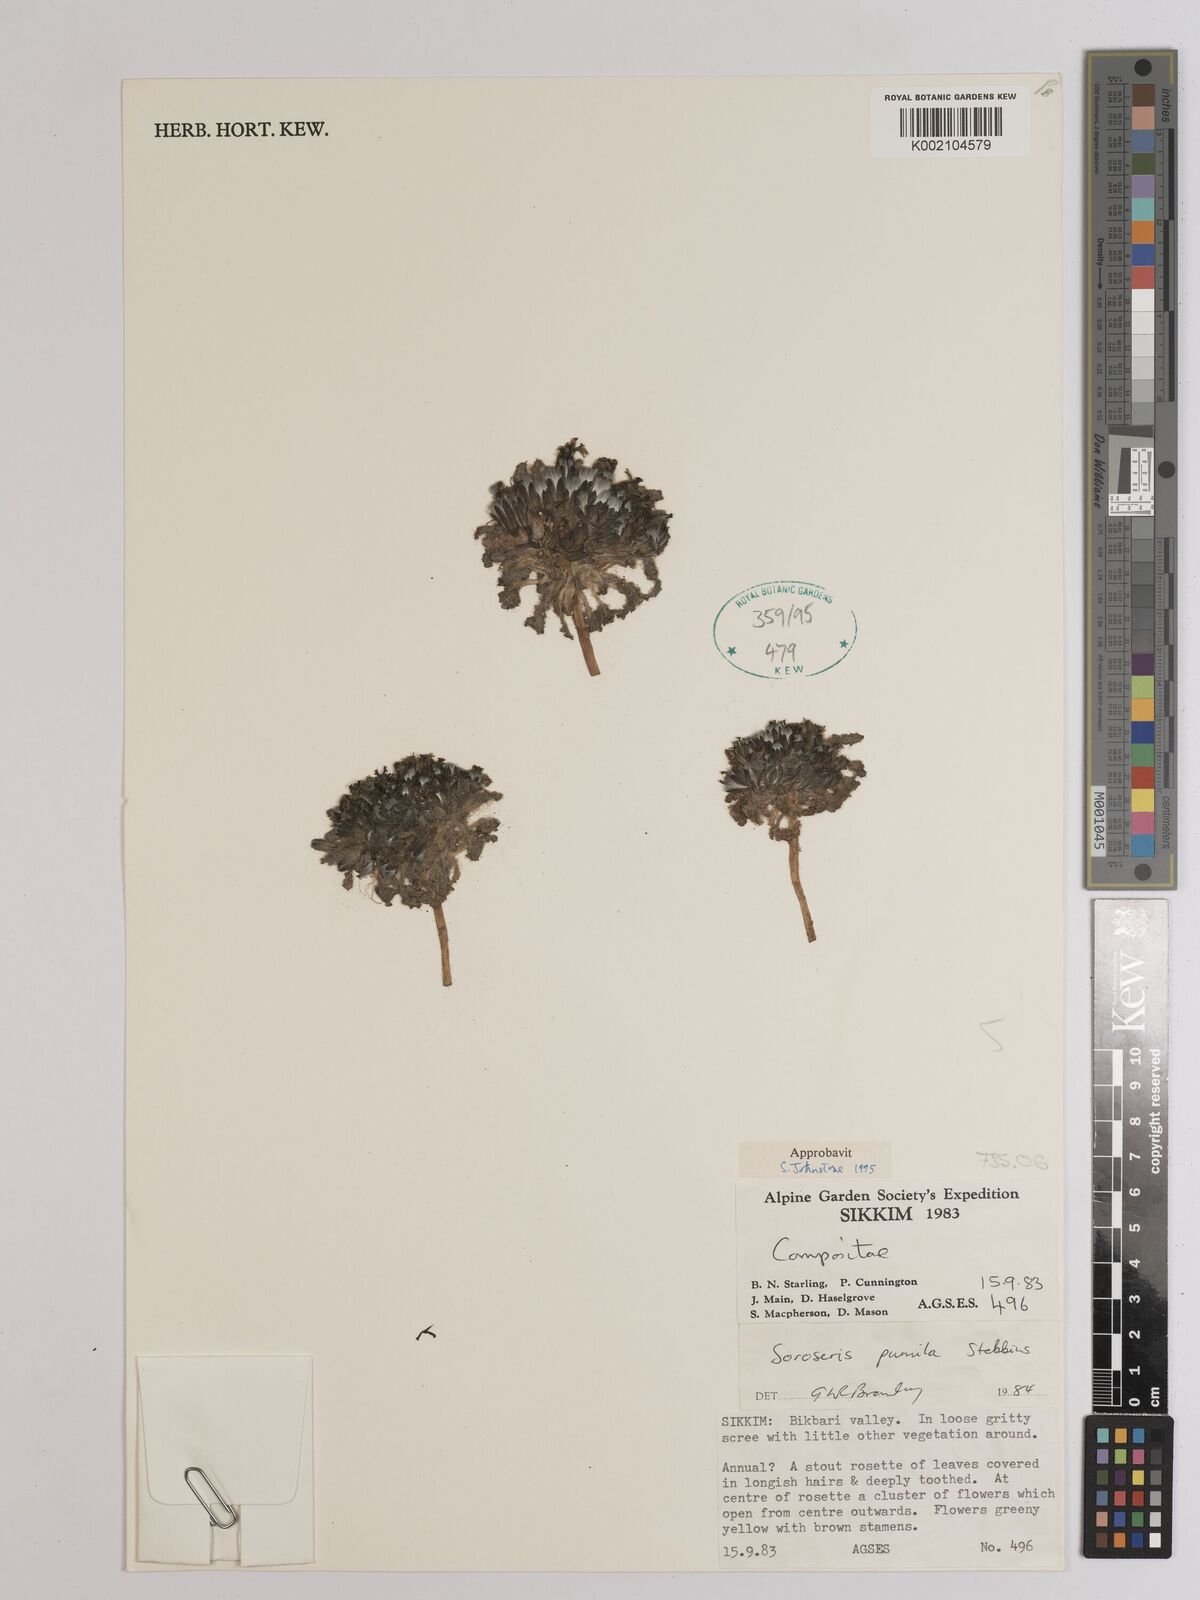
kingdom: Plantae
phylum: Tracheophyta
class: Magnoliopsida
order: Asterales
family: Asteraceae
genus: Soroseris
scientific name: Soroseris pumila
